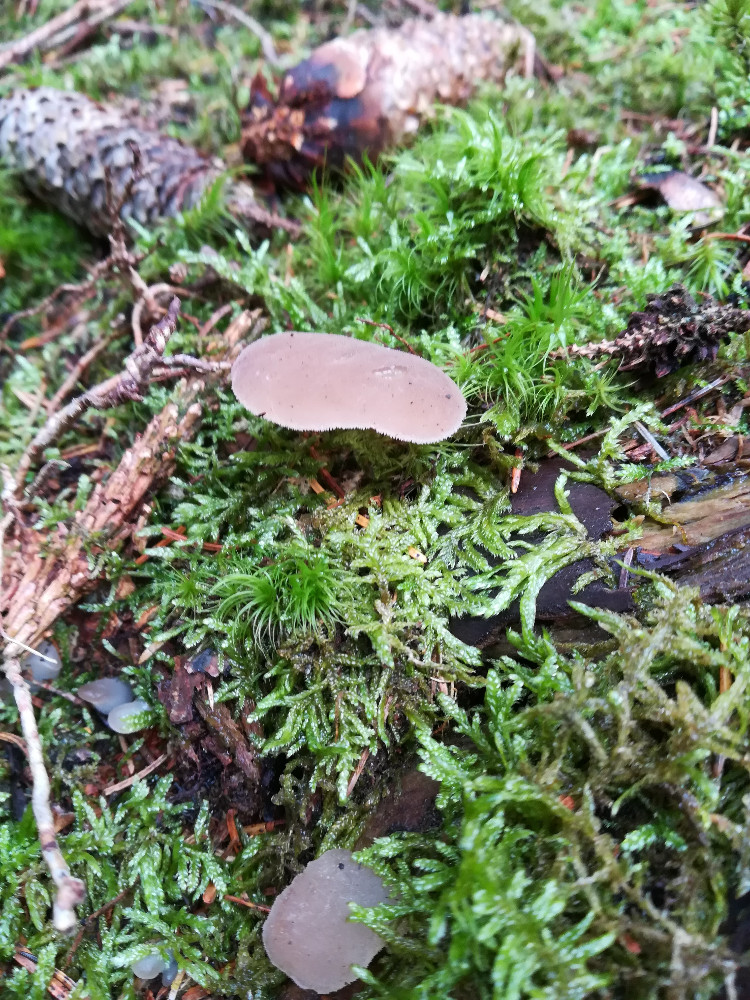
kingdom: Fungi
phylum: Basidiomycota
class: Agaricomycetes
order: Auriculariales
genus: Pseudohydnum
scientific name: Pseudohydnum gelatinosum
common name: bævretand
